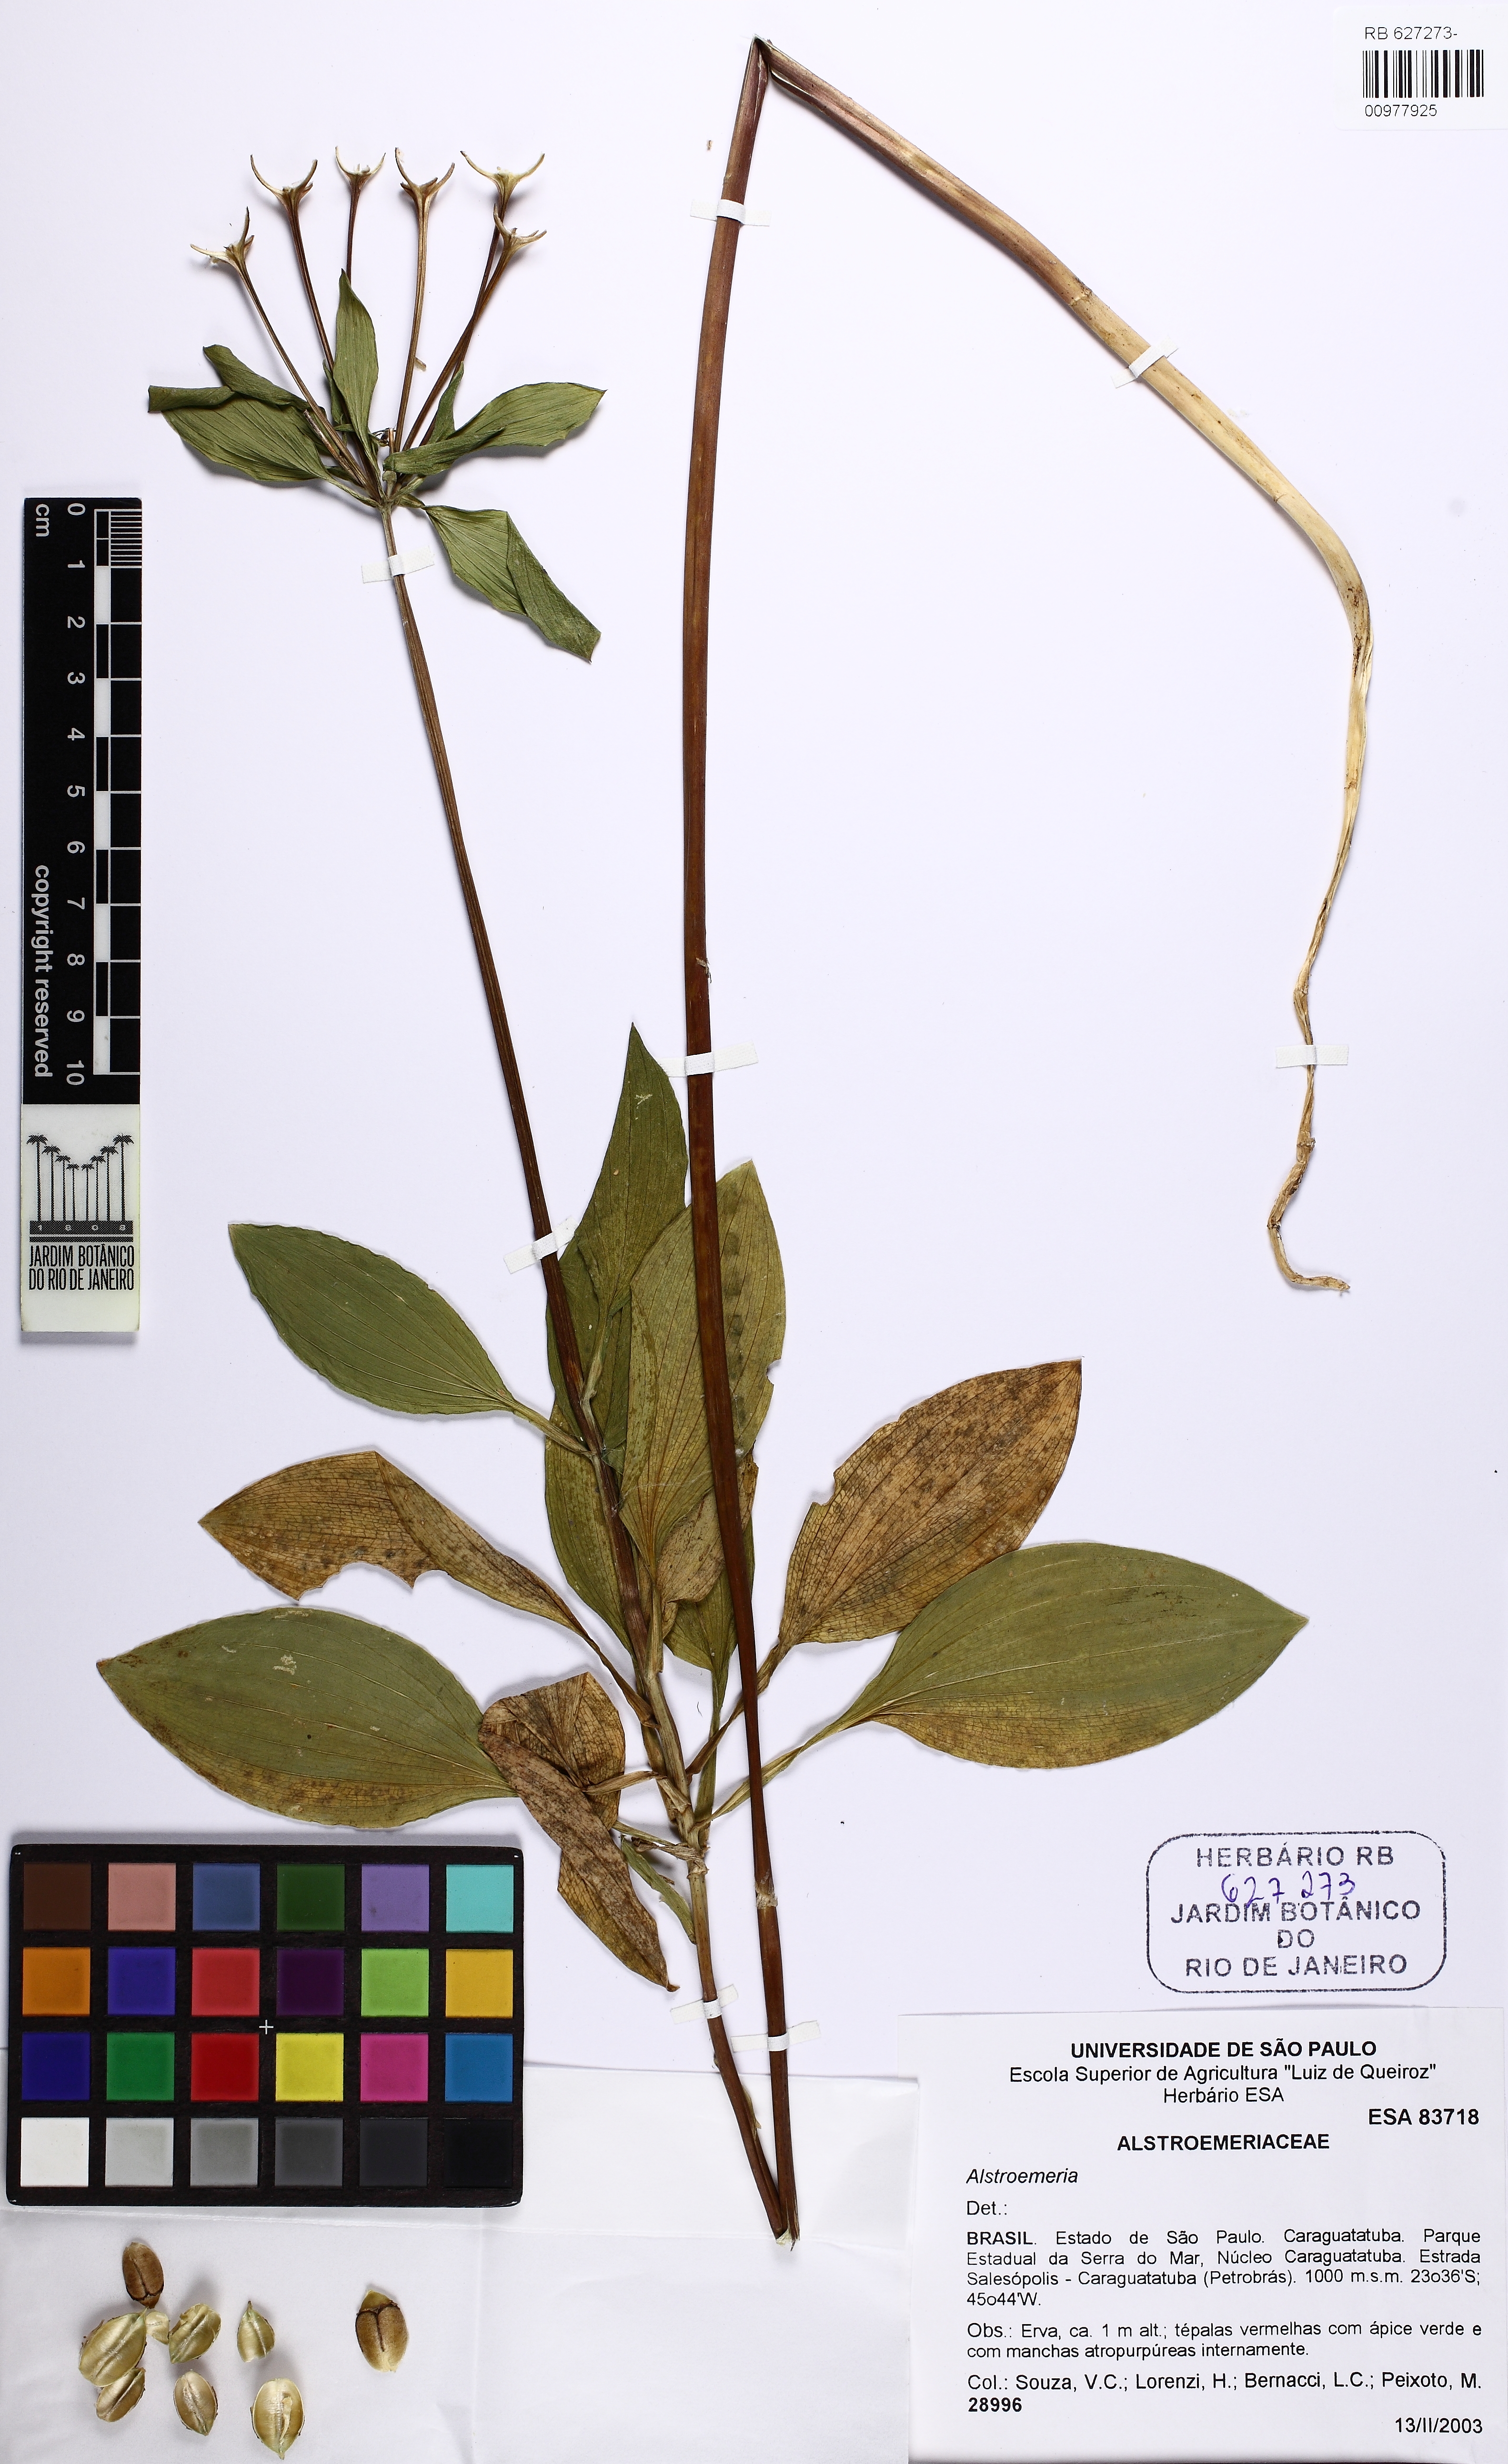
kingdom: Plantae
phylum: Tracheophyta
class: Liliopsida
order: Liliales
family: Alstroemeriaceae
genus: Alstroemeria
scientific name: Alstroemeria
